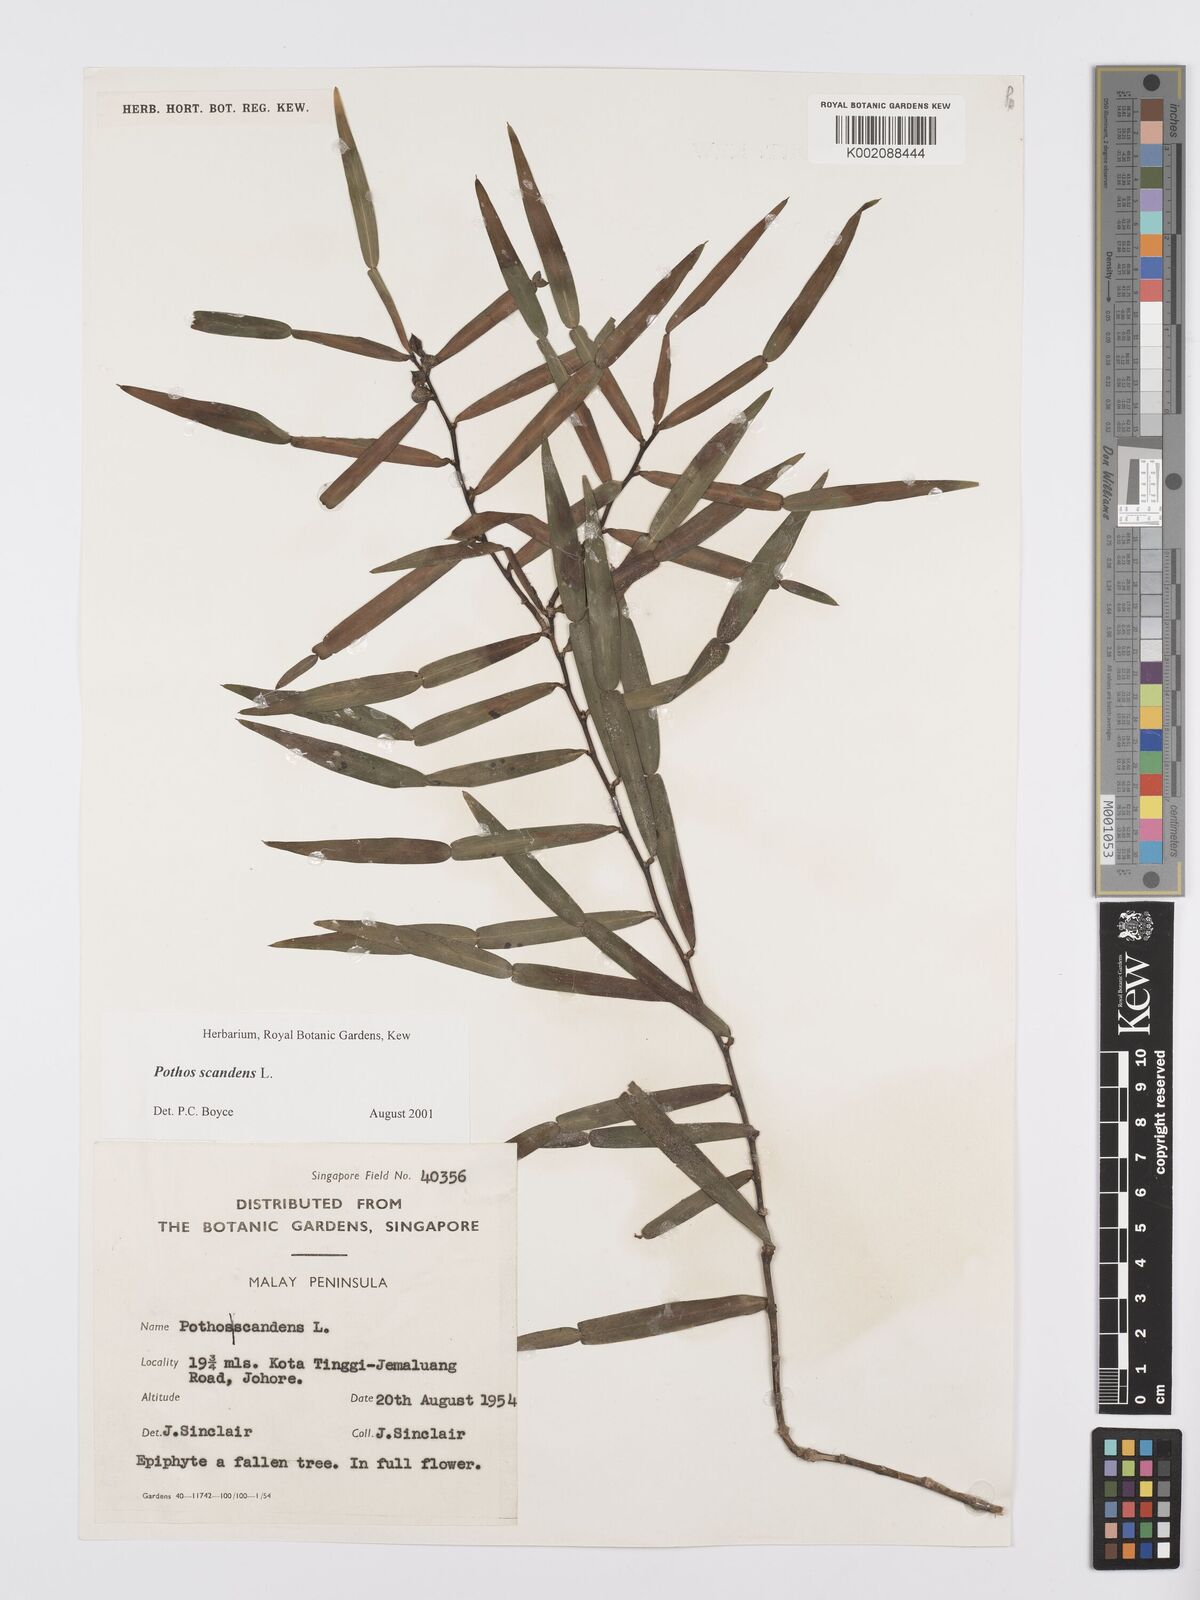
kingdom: Plantae
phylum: Tracheophyta
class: Liliopsida
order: Alismatales
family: Araceae
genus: Pothos
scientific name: Pothos scandens
